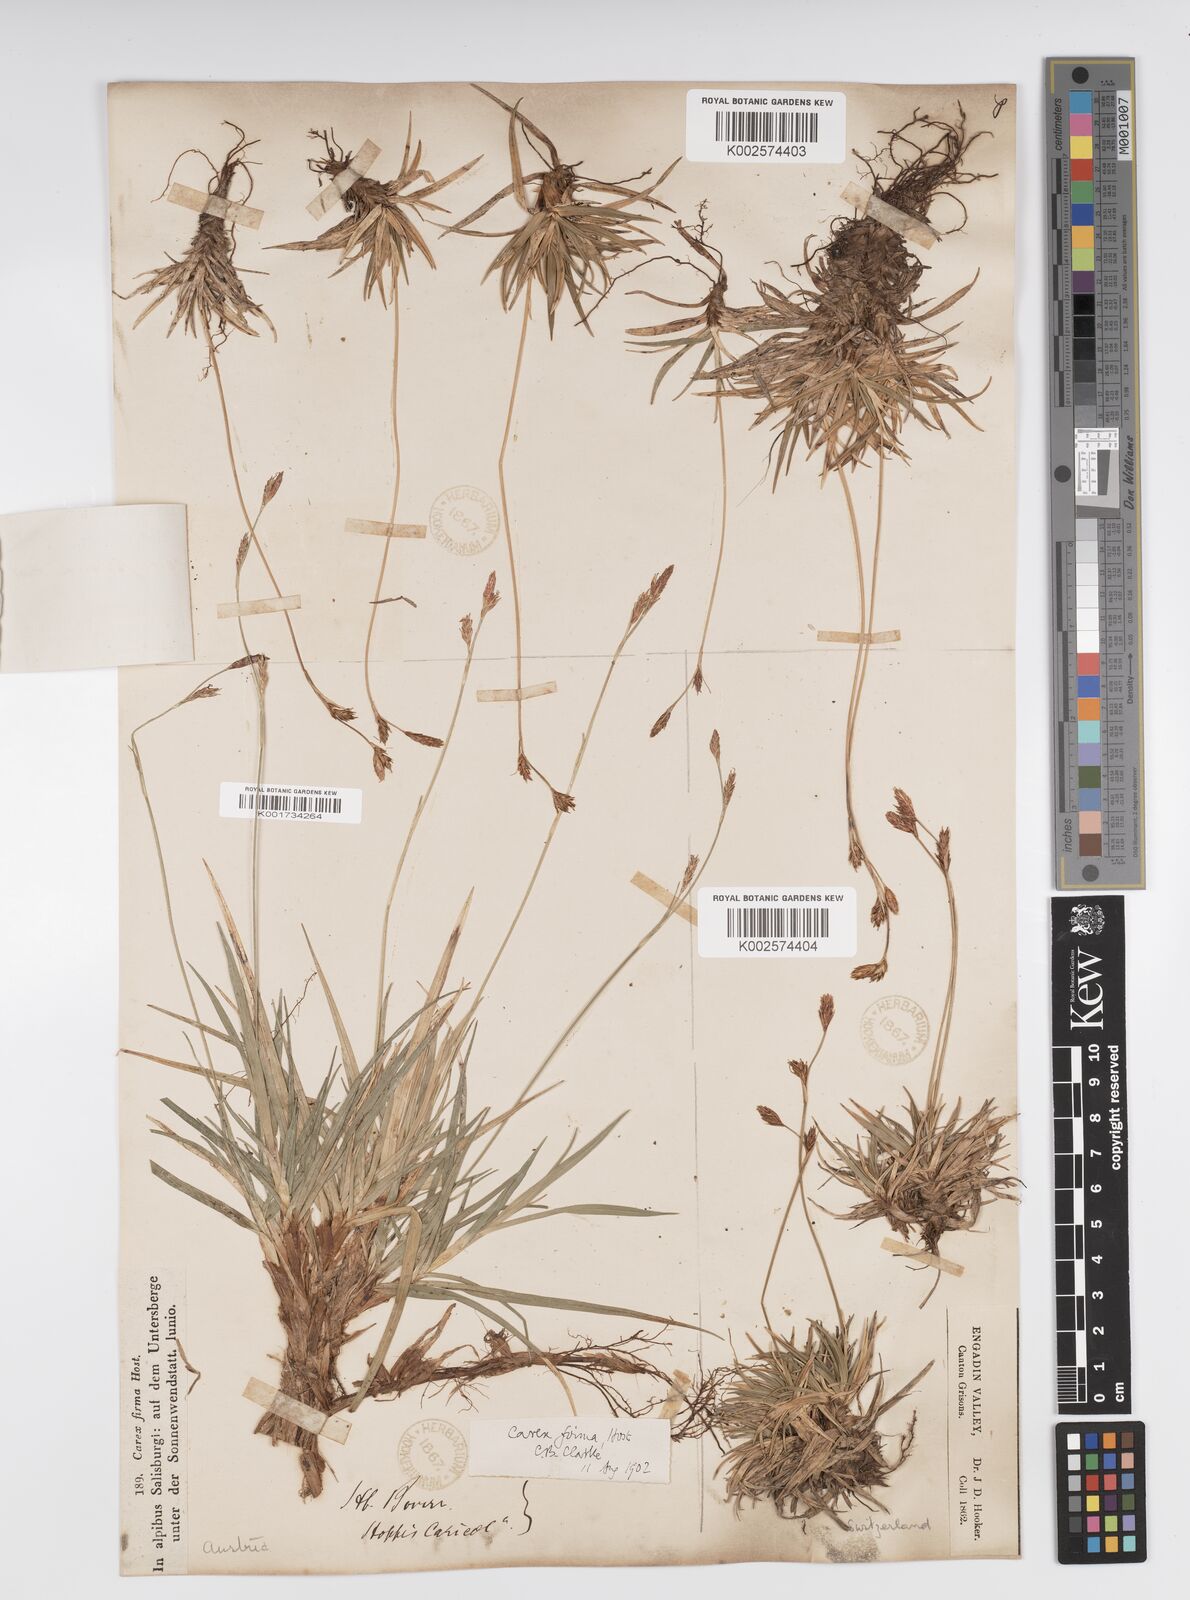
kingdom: Plantae
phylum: Tracheophyta
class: Liliopsida
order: Poales
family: Cyperaceae
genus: Carex
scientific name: Carex firma
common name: Dwarf pillow sedge
